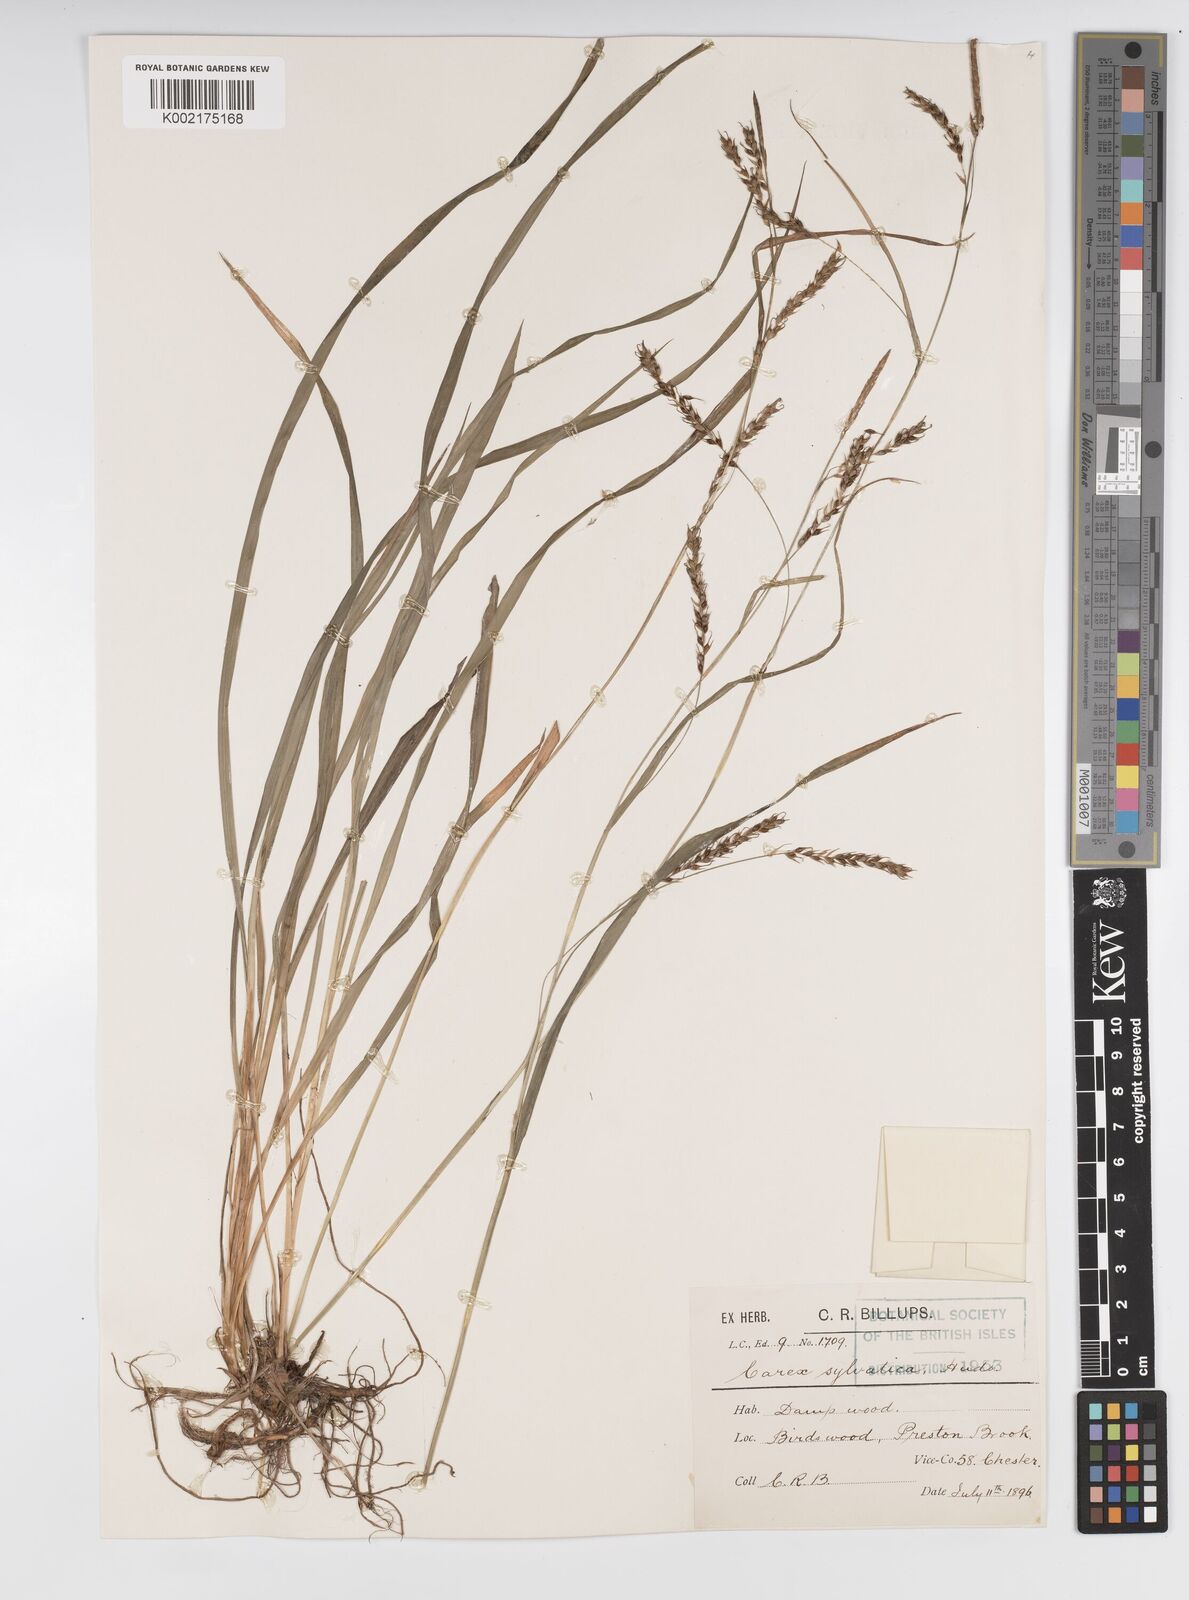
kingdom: Plantae
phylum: Tracheophyta
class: Liliopsida
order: Poales
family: Cyperaceae
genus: Carex
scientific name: Carex sylvatica
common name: Wood-sedge
